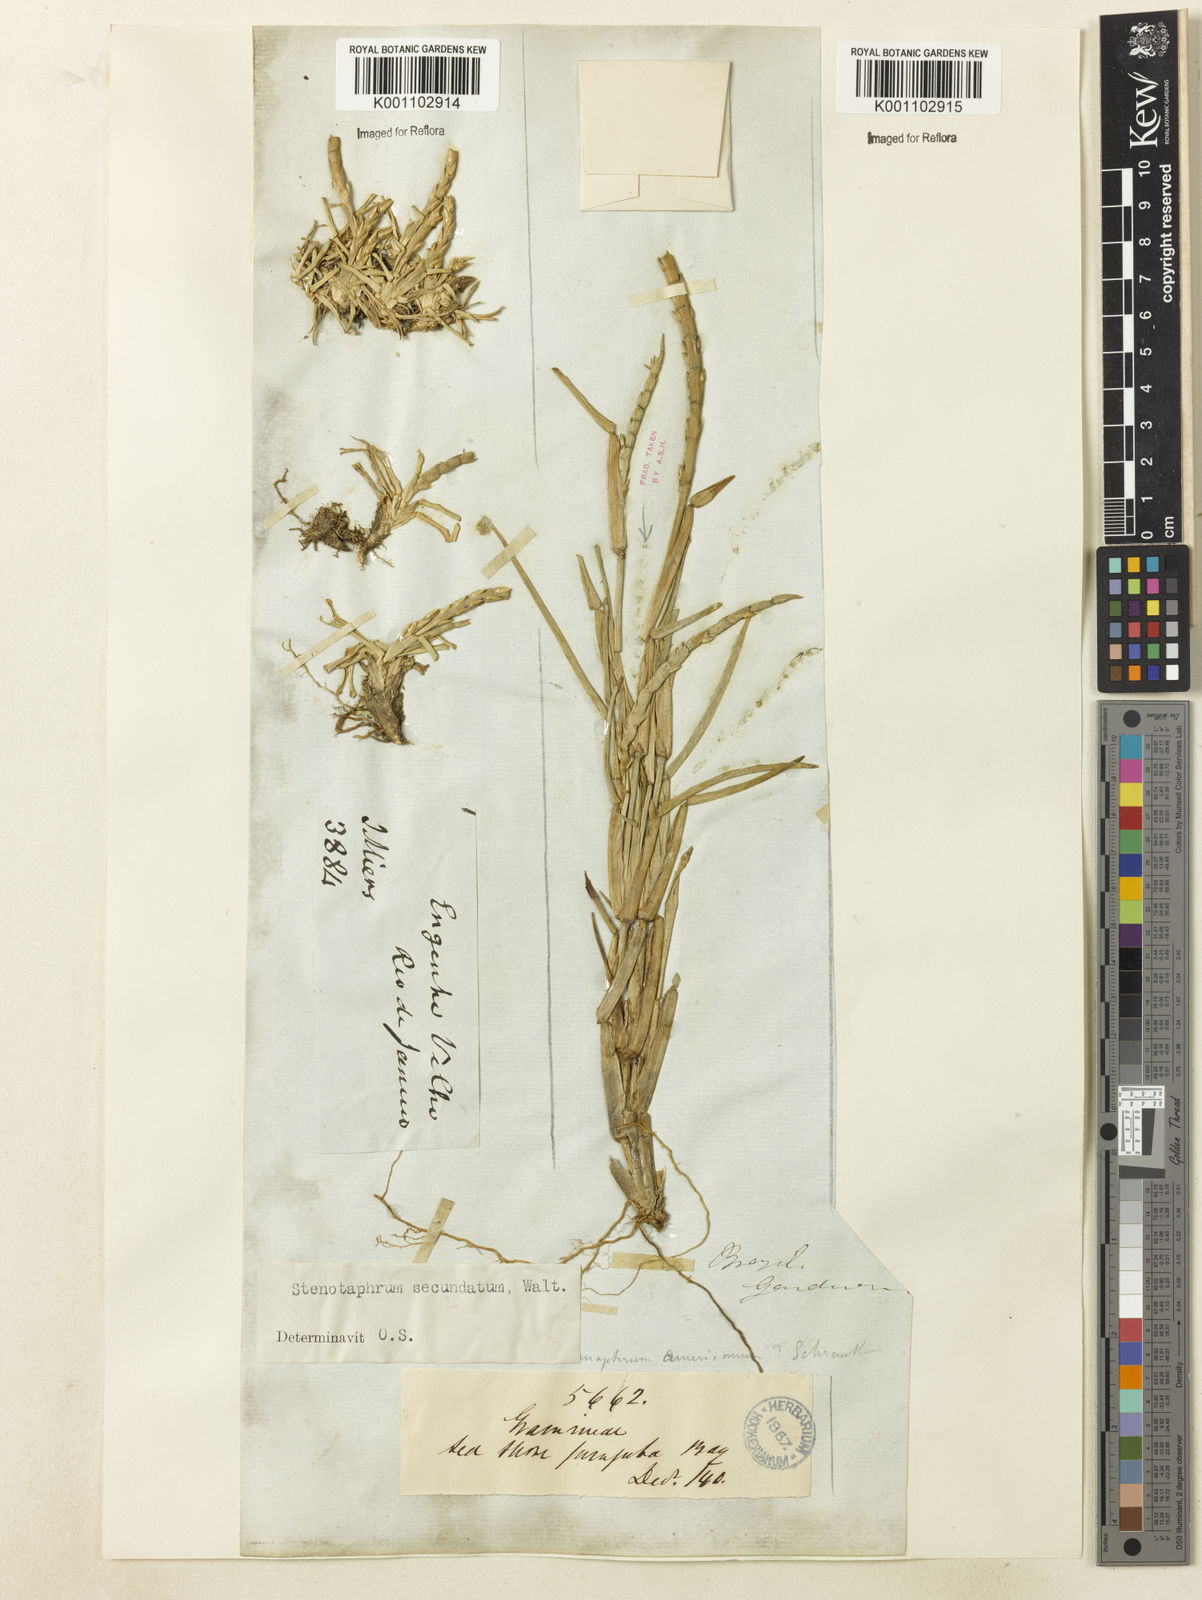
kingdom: Plantae
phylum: Tracheophyta
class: Liliopsida
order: Poales
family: Poaceae
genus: Stenotaphrum
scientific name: Stenotaphrum secundatum
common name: St. augustine grass
